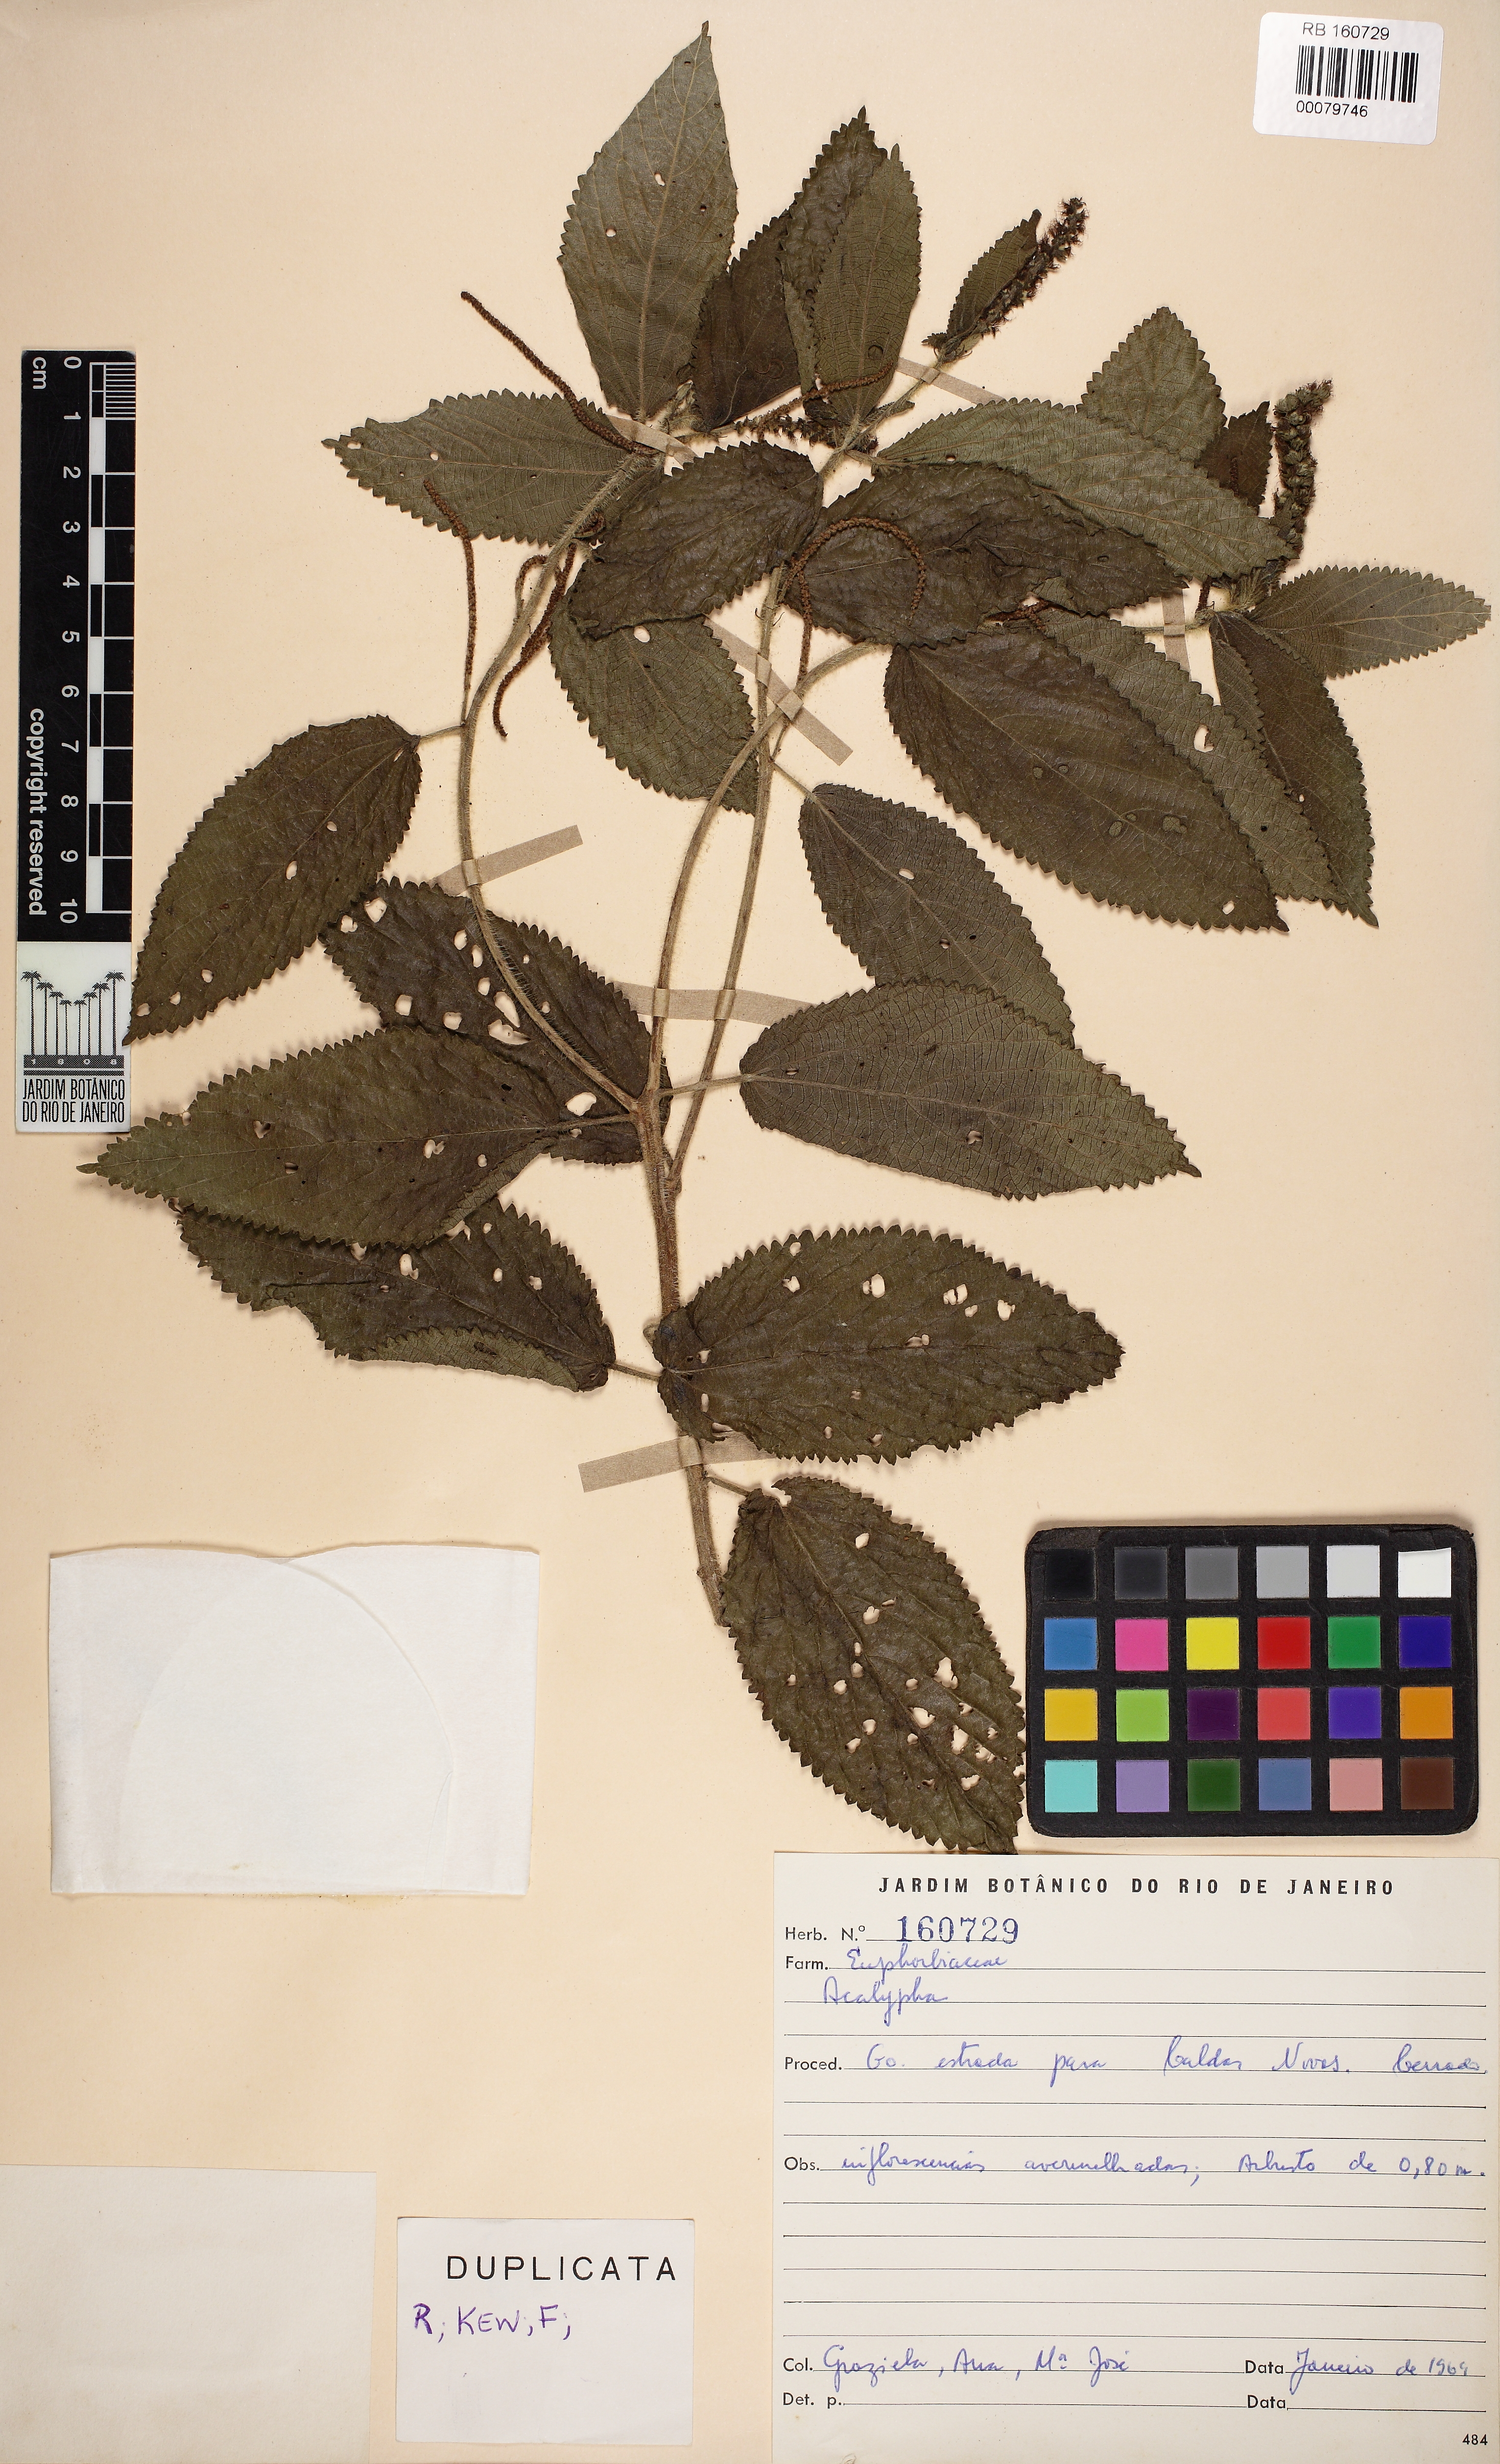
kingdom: Plantae
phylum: Tracheophyta
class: Magnoliopsida
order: Malpighiales
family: Euphorbiaceae
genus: Acalypha
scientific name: Acalypha communis
